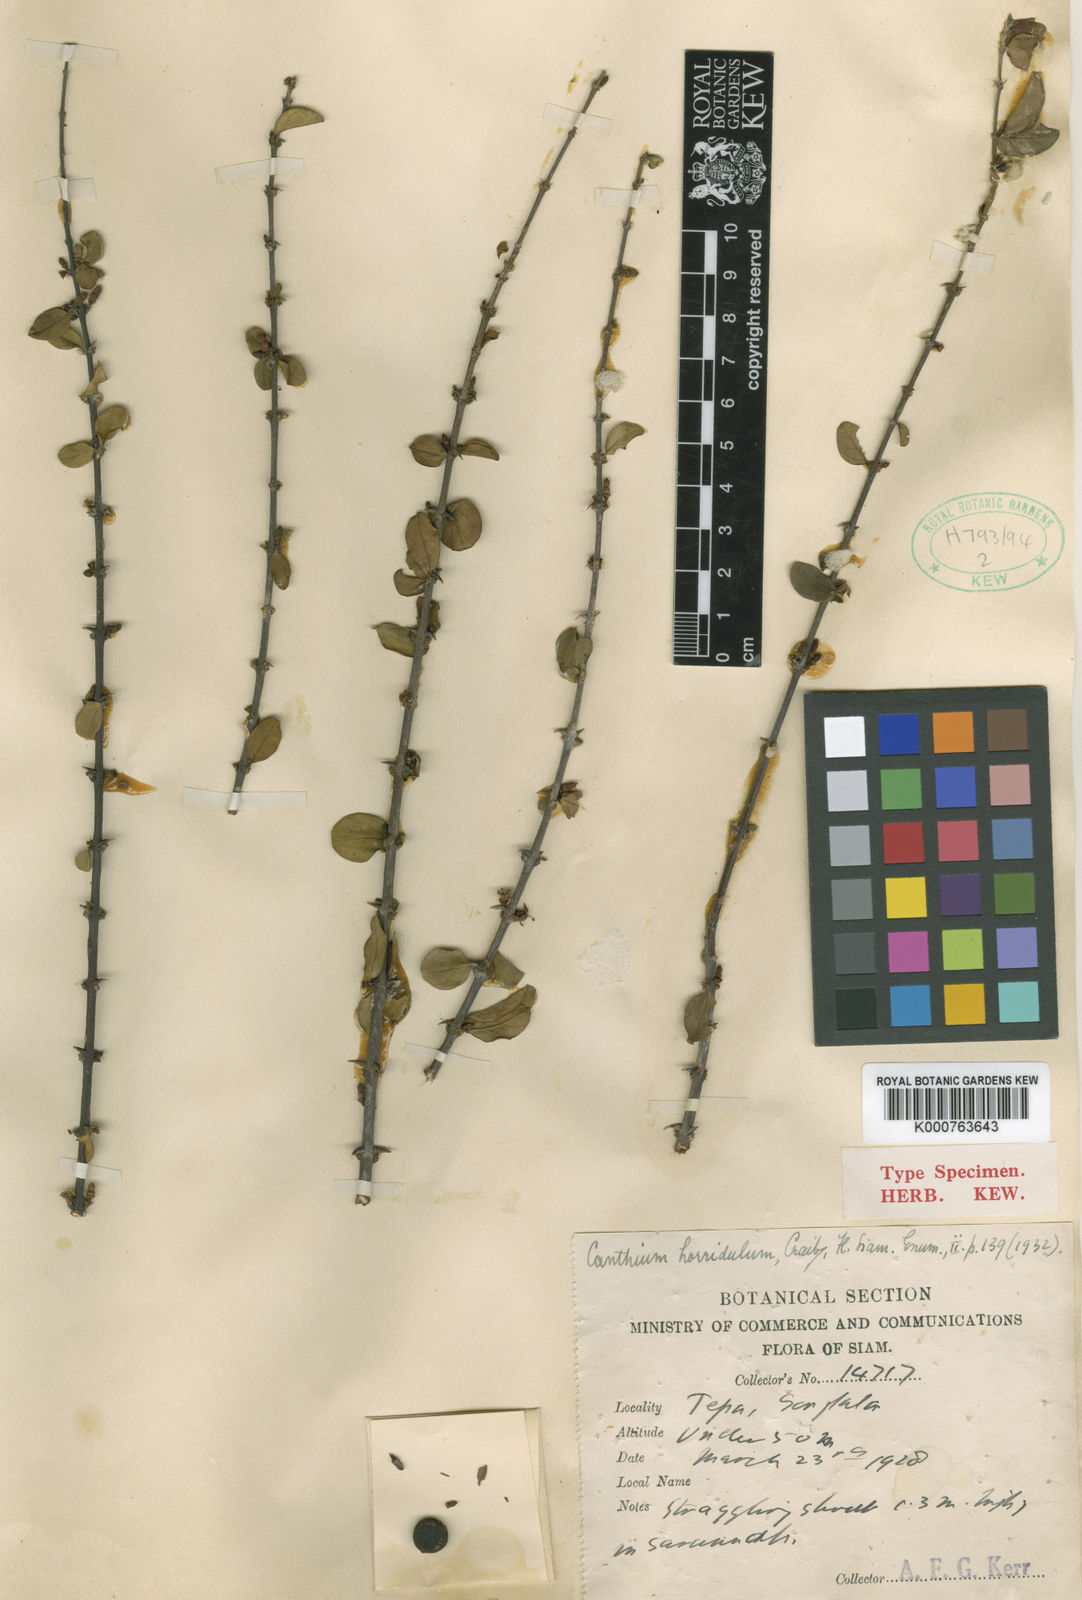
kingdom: Plantae
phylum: Tracheophyta
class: Magnoliopsida
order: Gentianales
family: Rubiaceae
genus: Canthium
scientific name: Canthium horridulum
